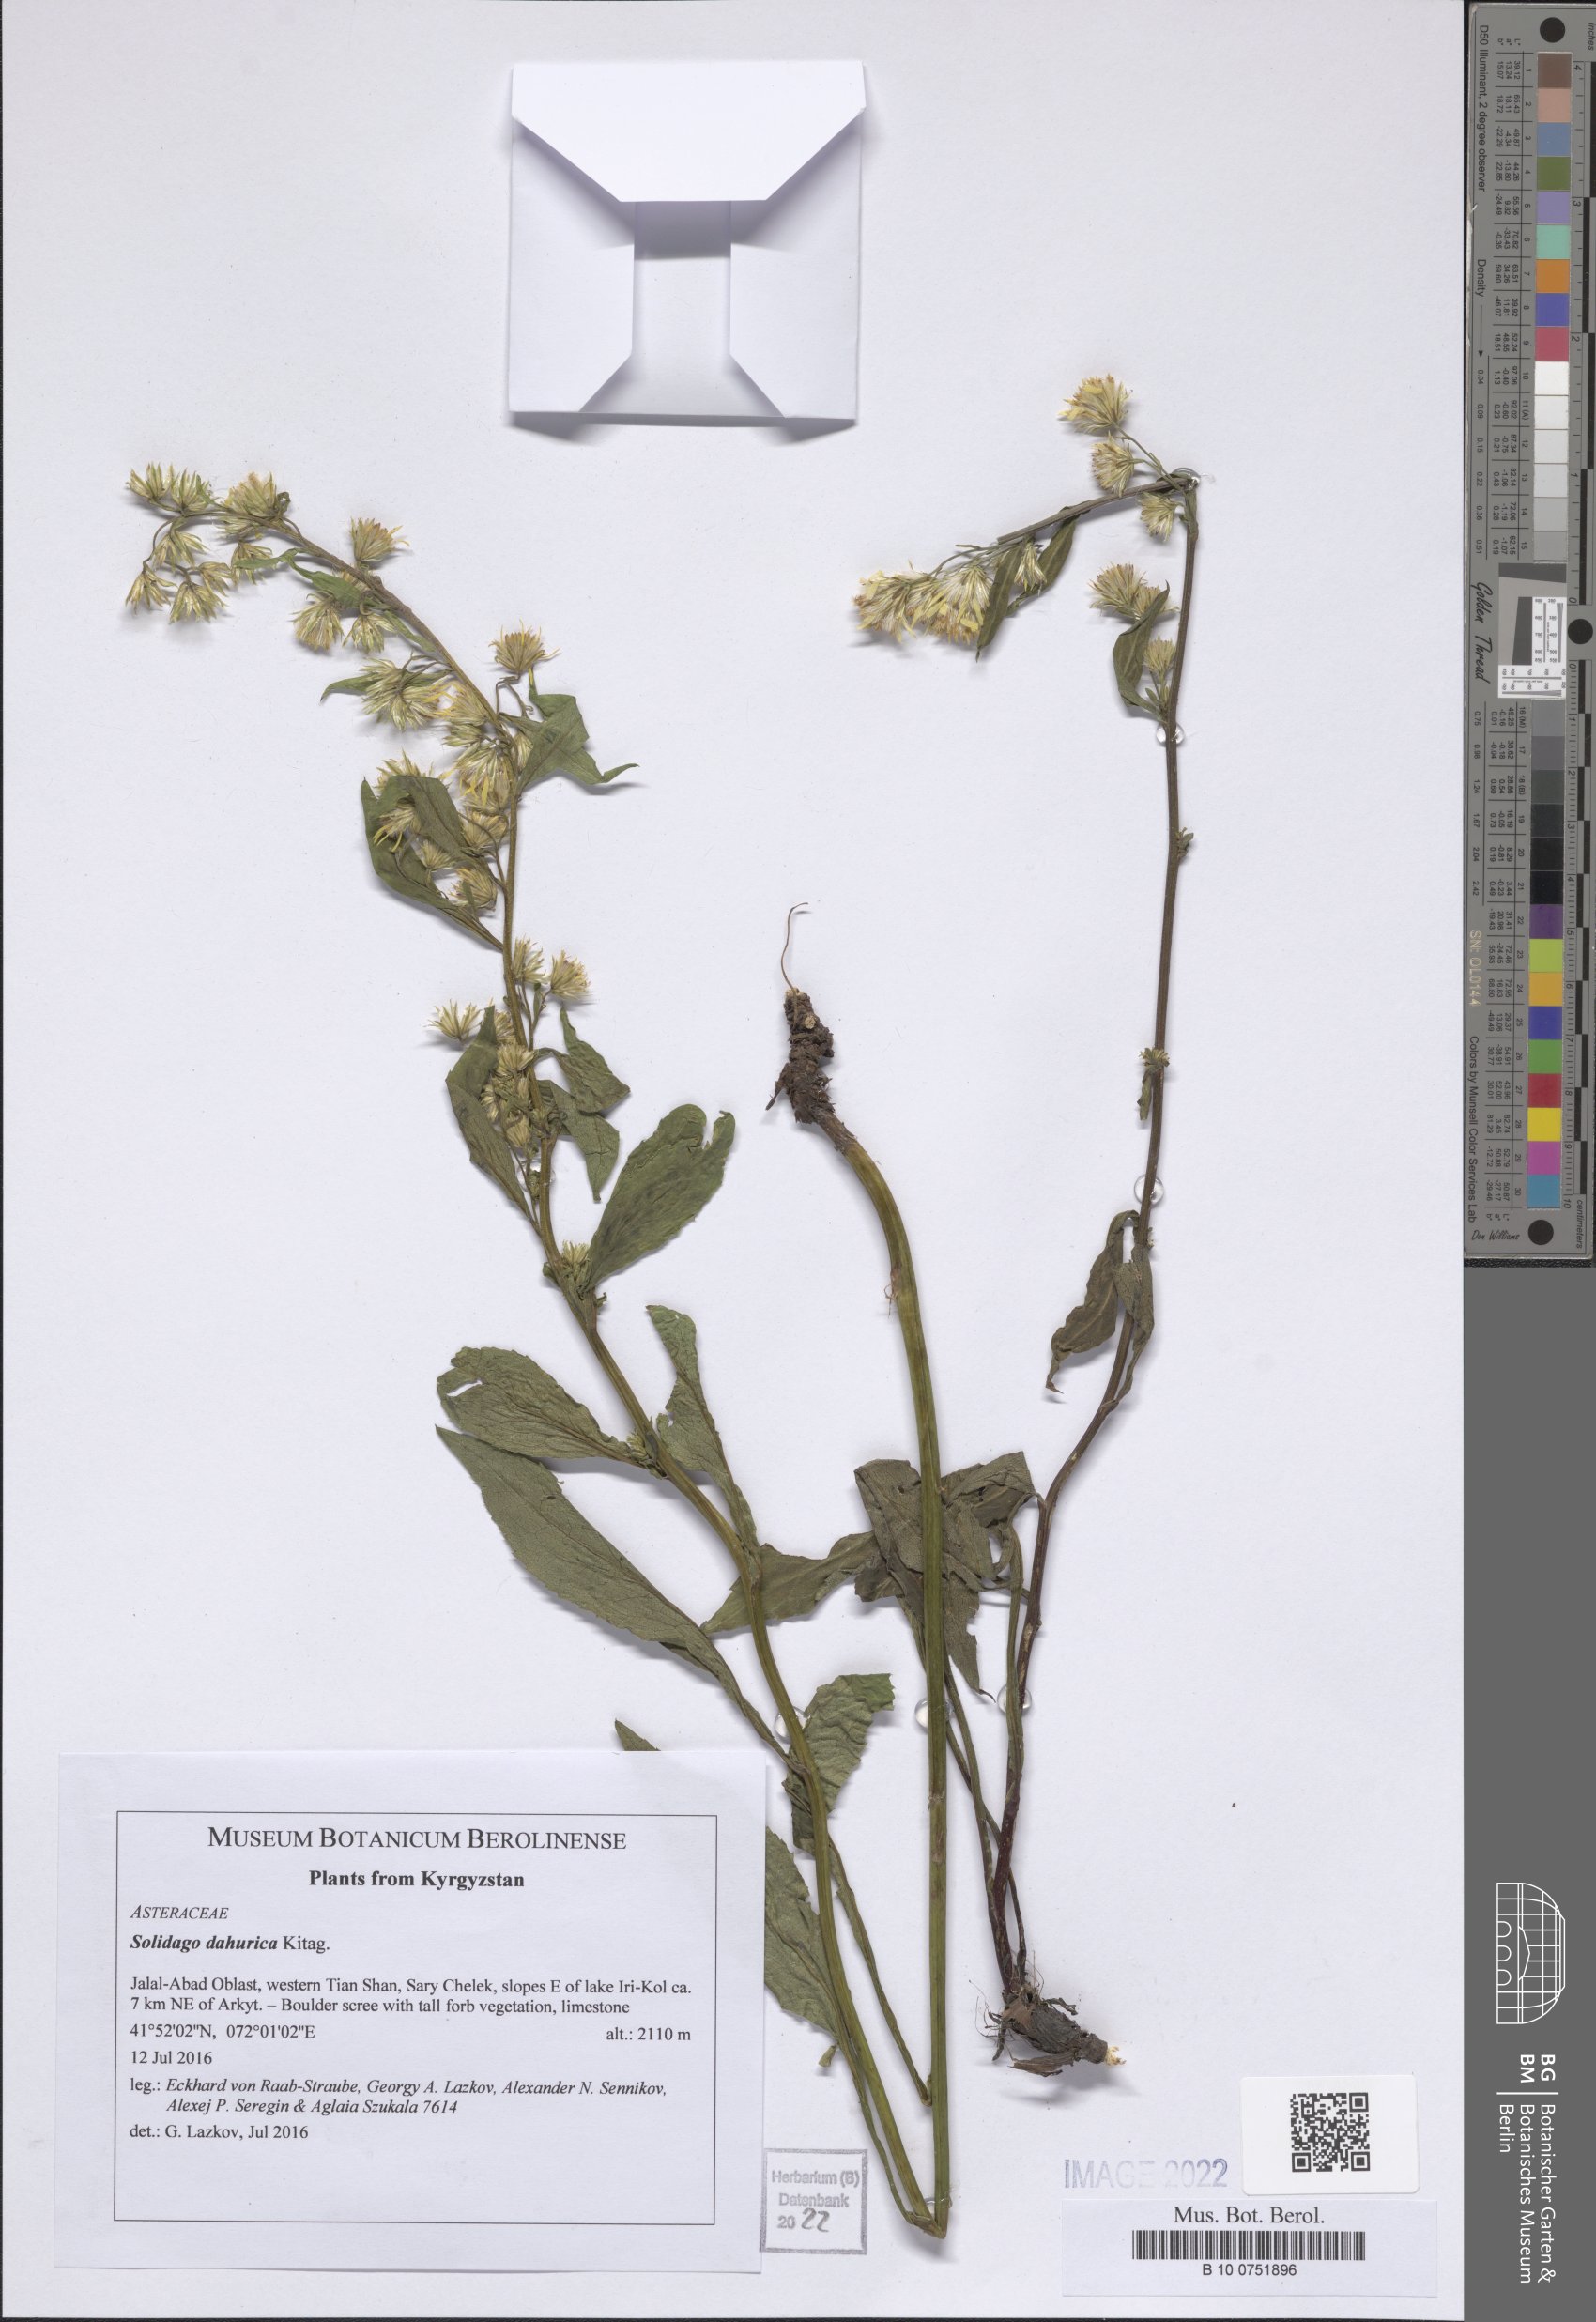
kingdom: Plantae
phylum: Tracheophyta
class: Magnoliopsida
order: Asterales
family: Asteraceae
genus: Solidago
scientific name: Solidago dahurica
